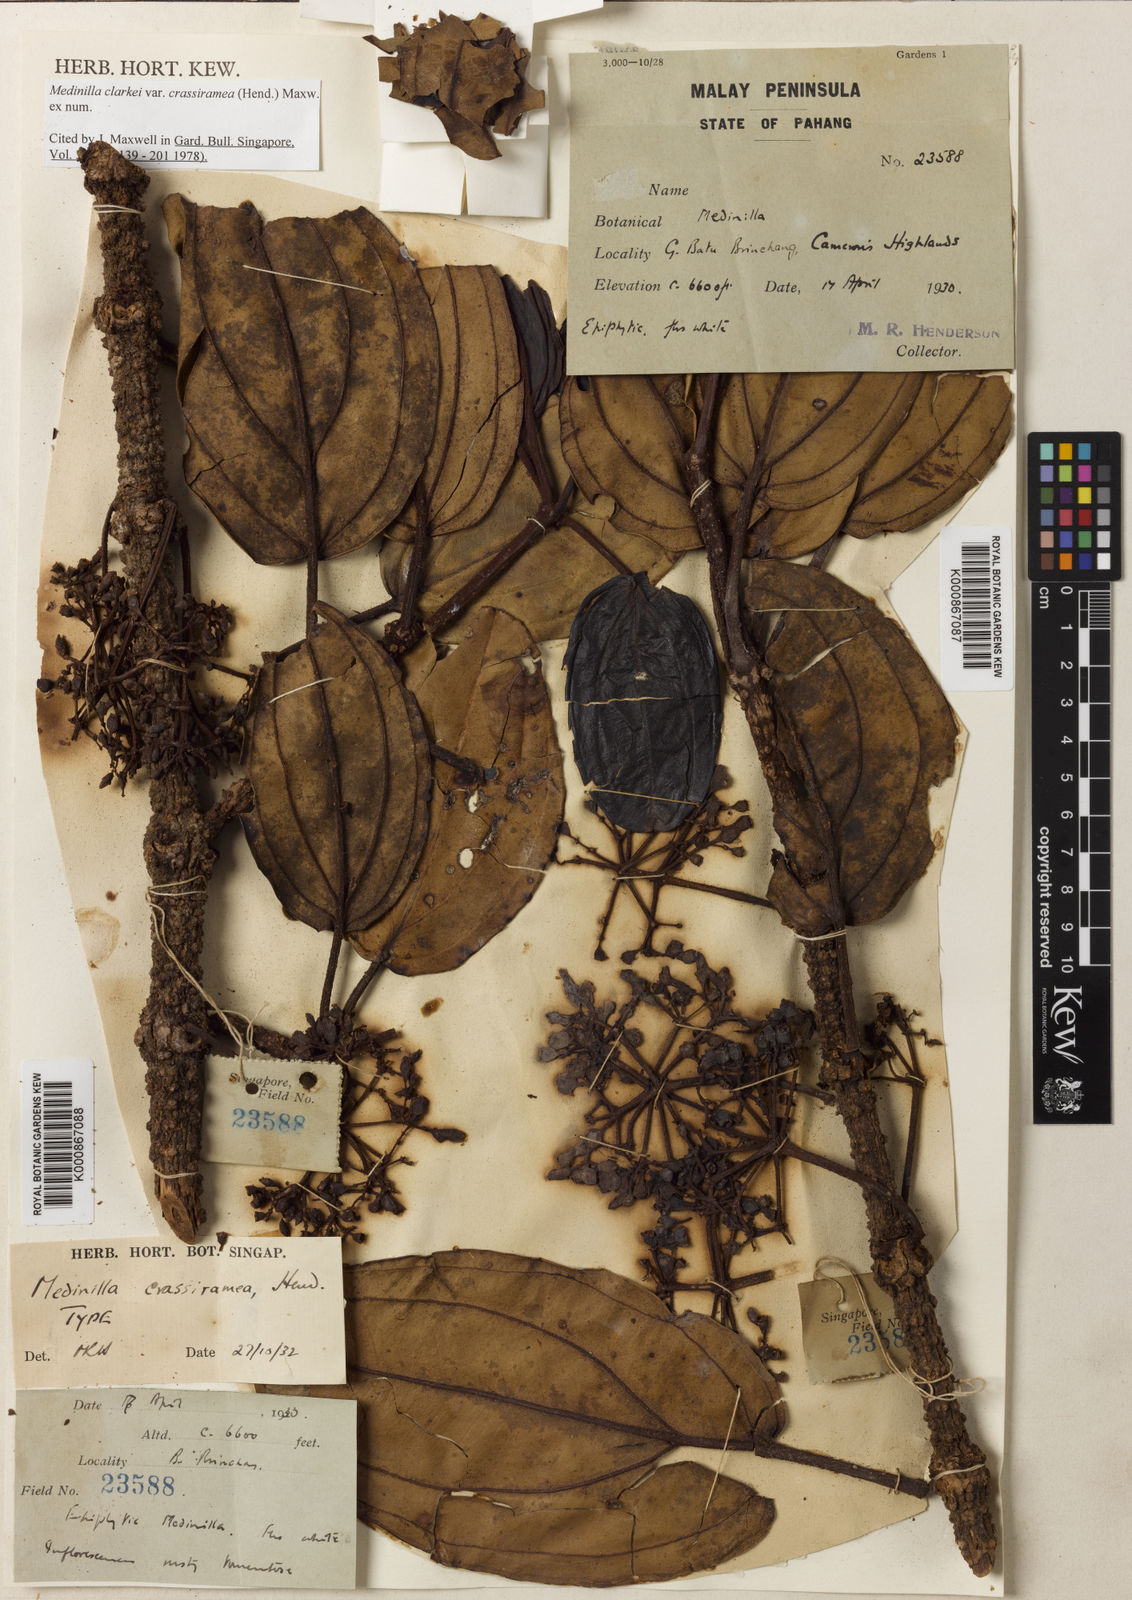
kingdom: Plantae
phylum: Tracheophyta
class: Magnoliopsida
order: Myrtales
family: Melastomataceae
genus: Medinilla
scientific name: Medinilla clarkei
